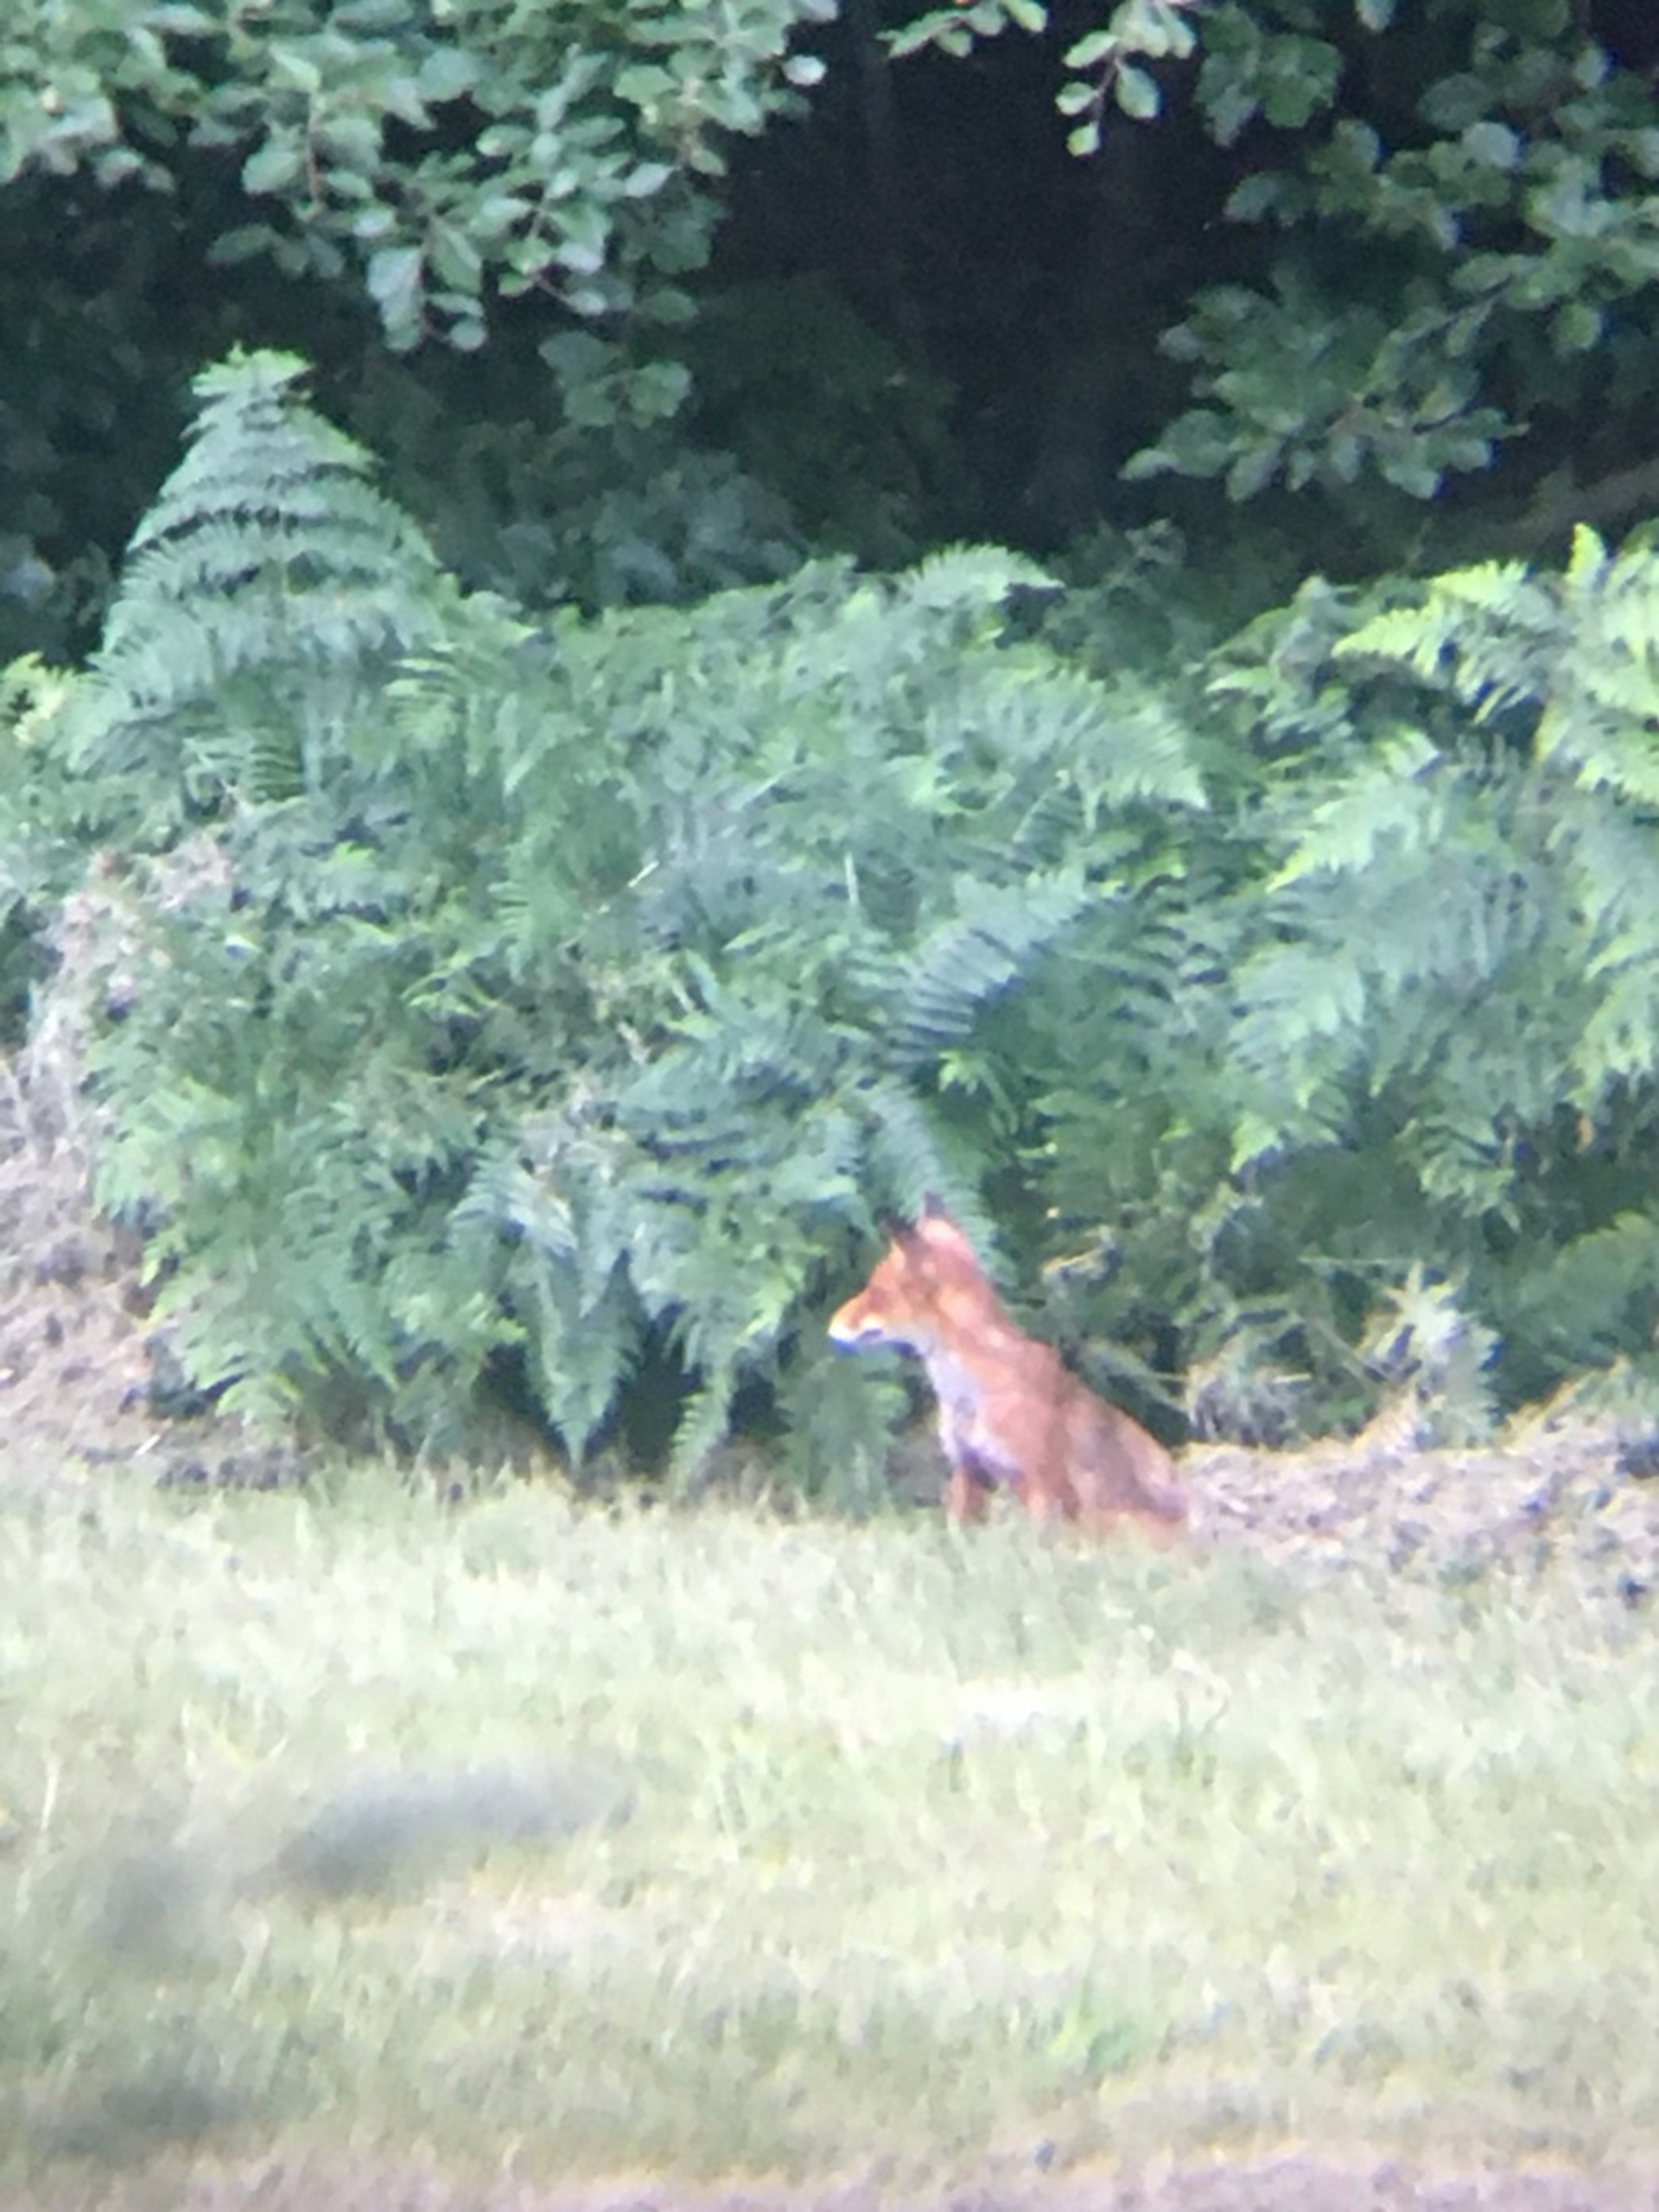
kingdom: Animalia
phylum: Chordata
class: Mammalia
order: Carnivora
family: Canidae
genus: Vulpes
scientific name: Vulpes vulpes
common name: Ræv
